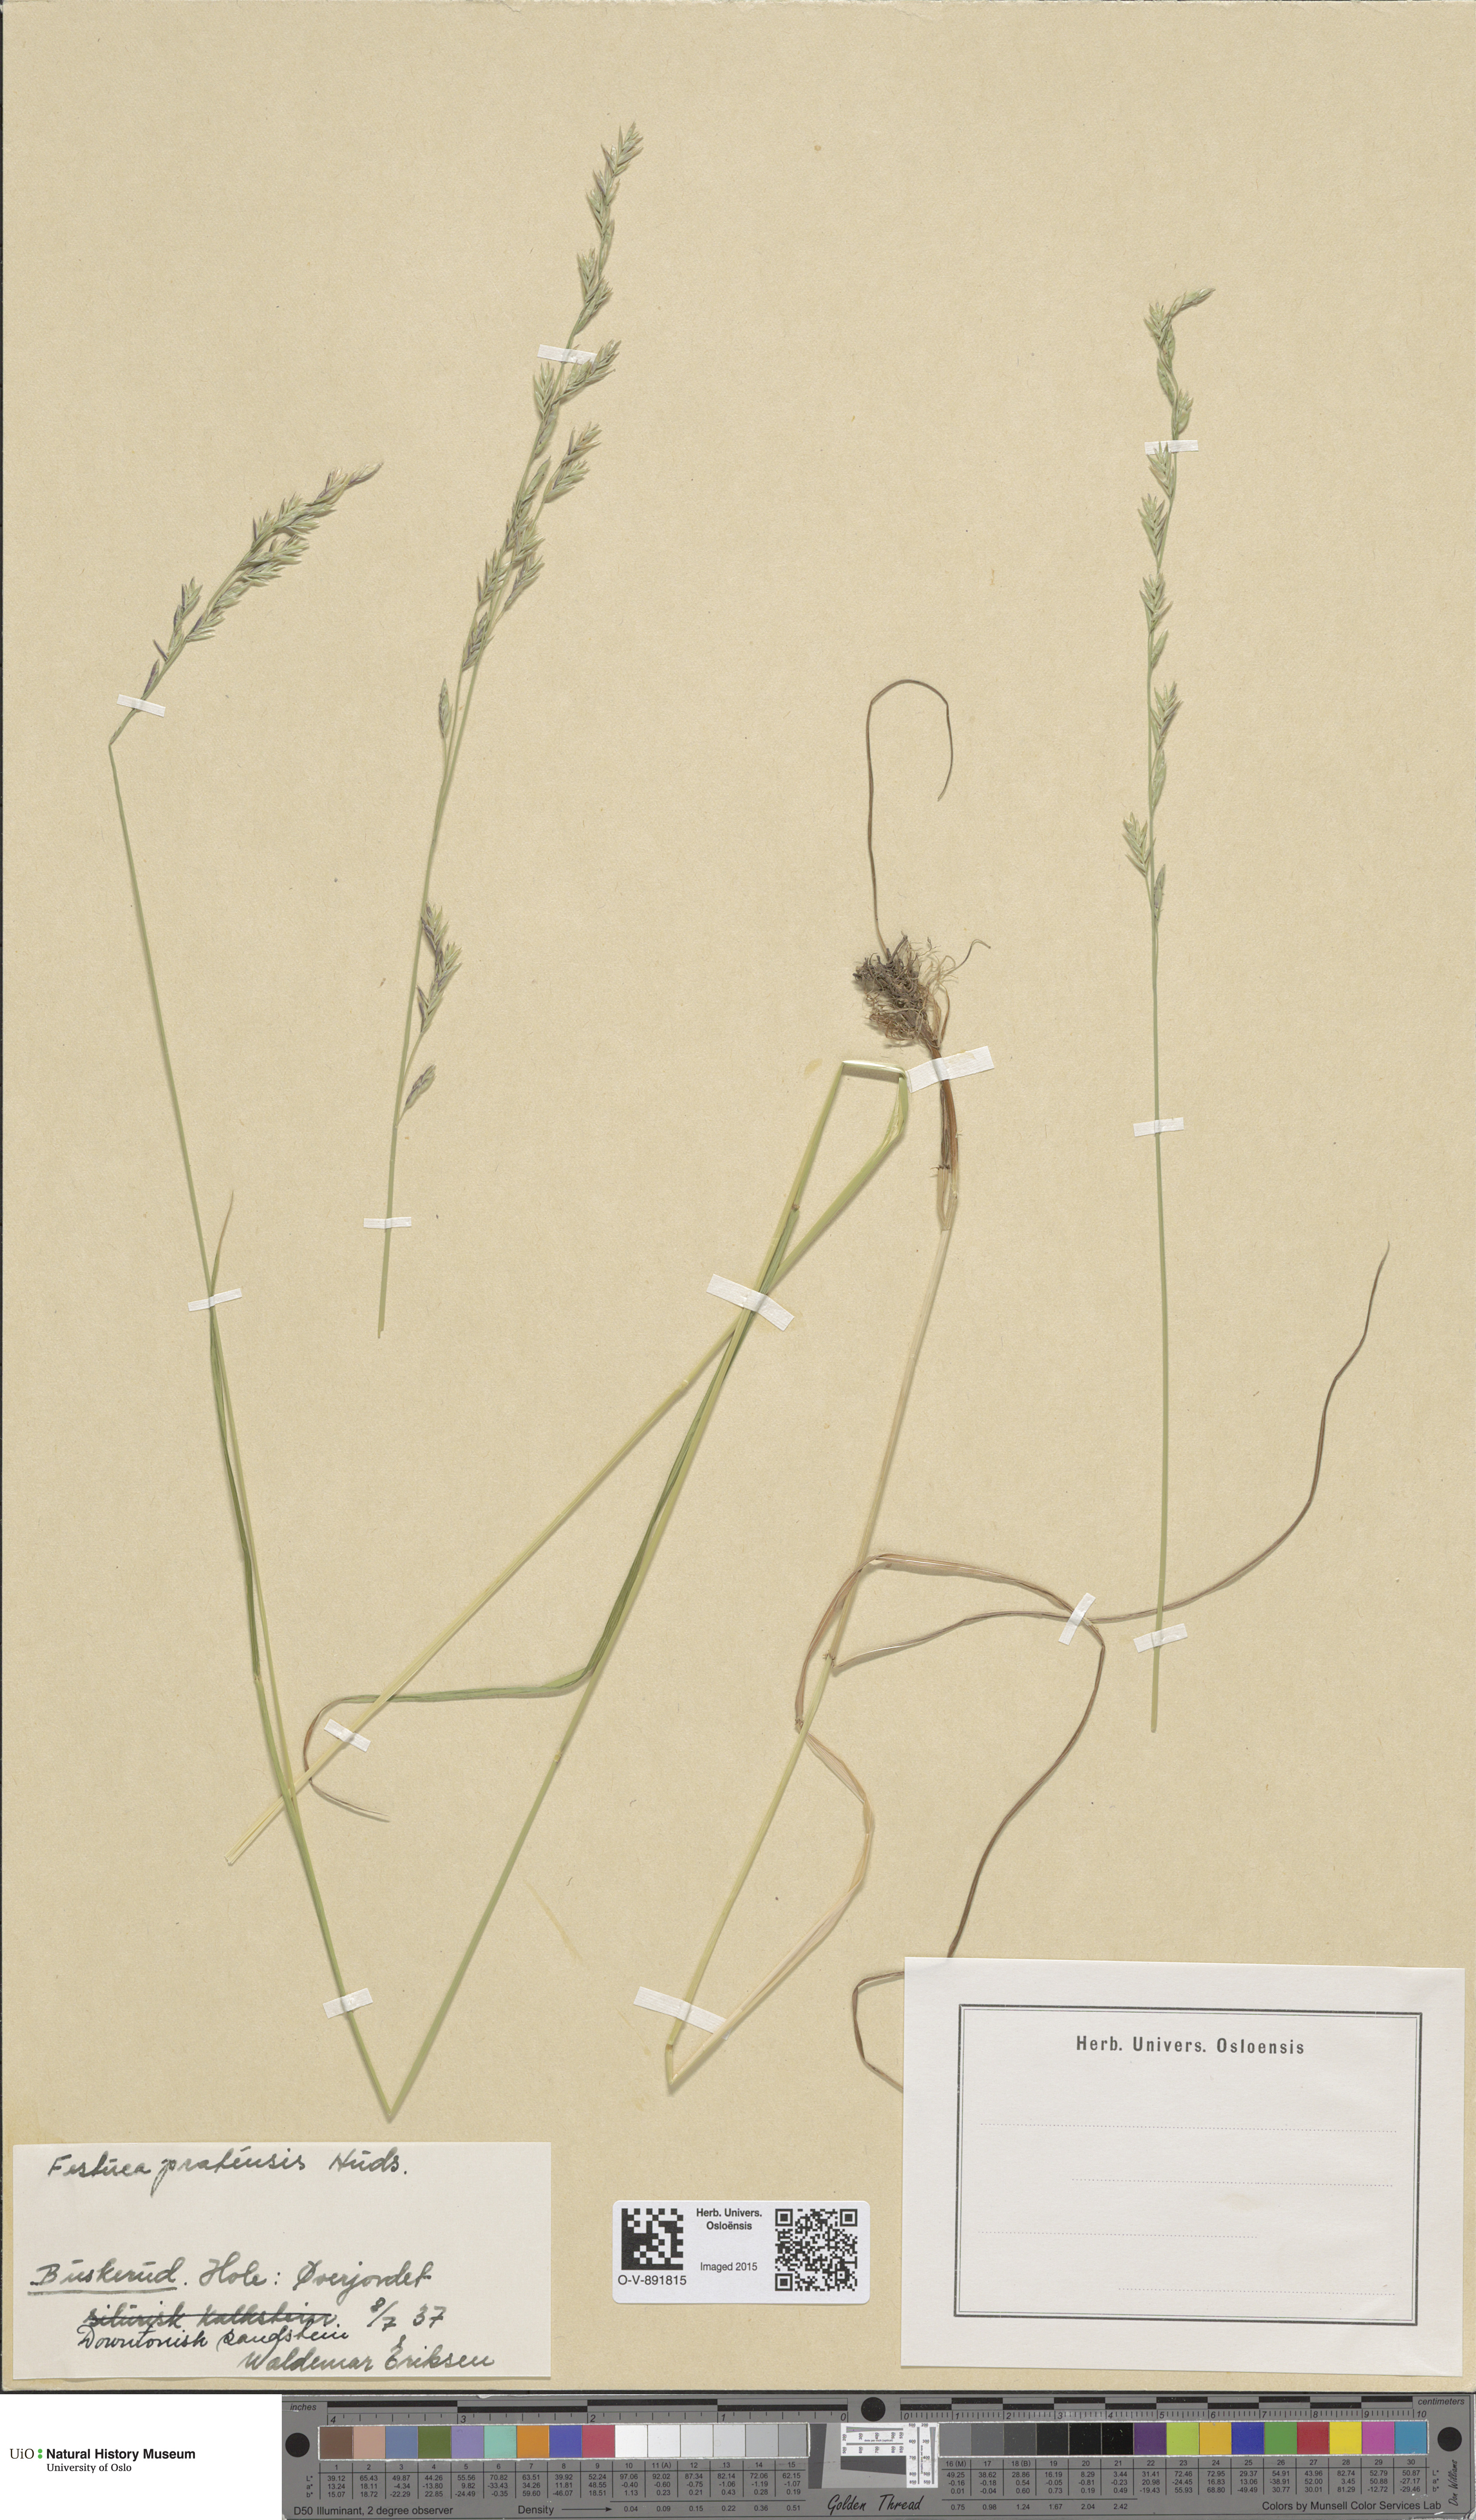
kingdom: Plantae
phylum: Tracheophyta
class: Liliopsida
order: Poales
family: Poaceae
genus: Lolium
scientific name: Lolium pratense
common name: Dover grass
